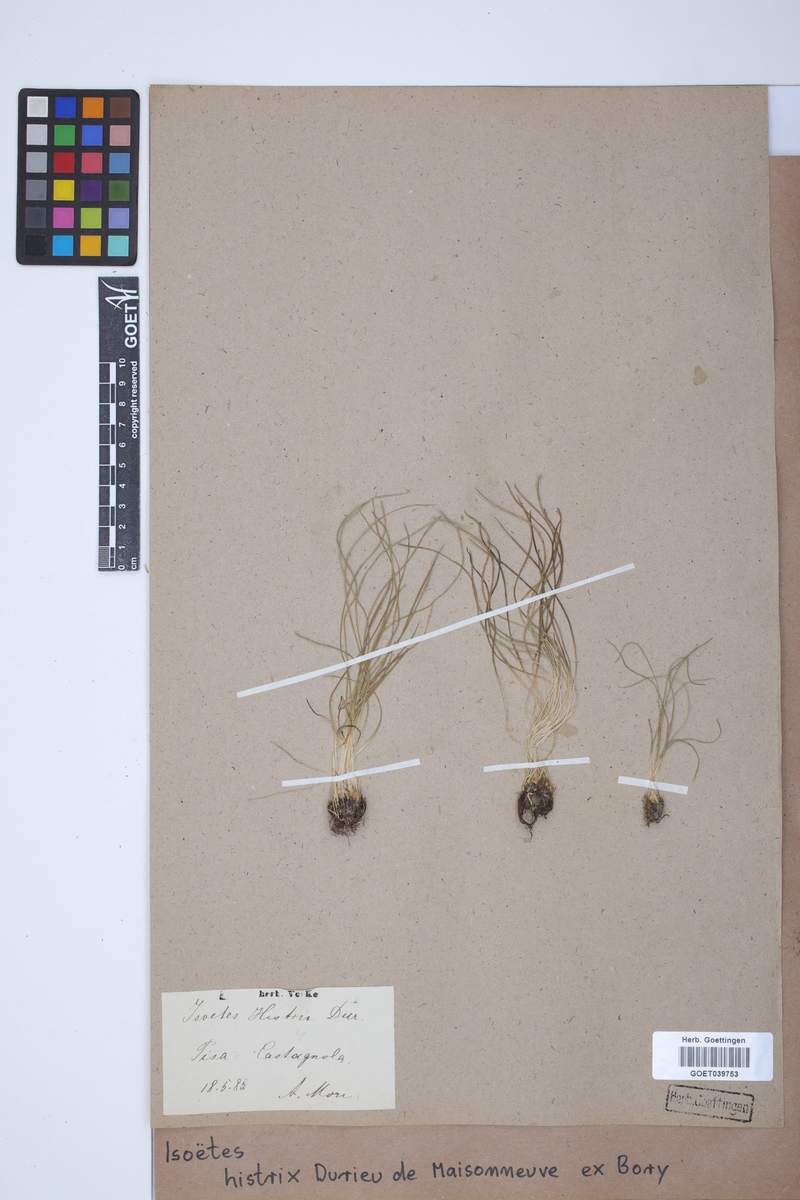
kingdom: Plantae
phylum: Tracheophyta
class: Lycopodiopsida
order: Isoetales
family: Isoetaceae
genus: Isoetes
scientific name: Isoetes histrix
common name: Land quillwort
